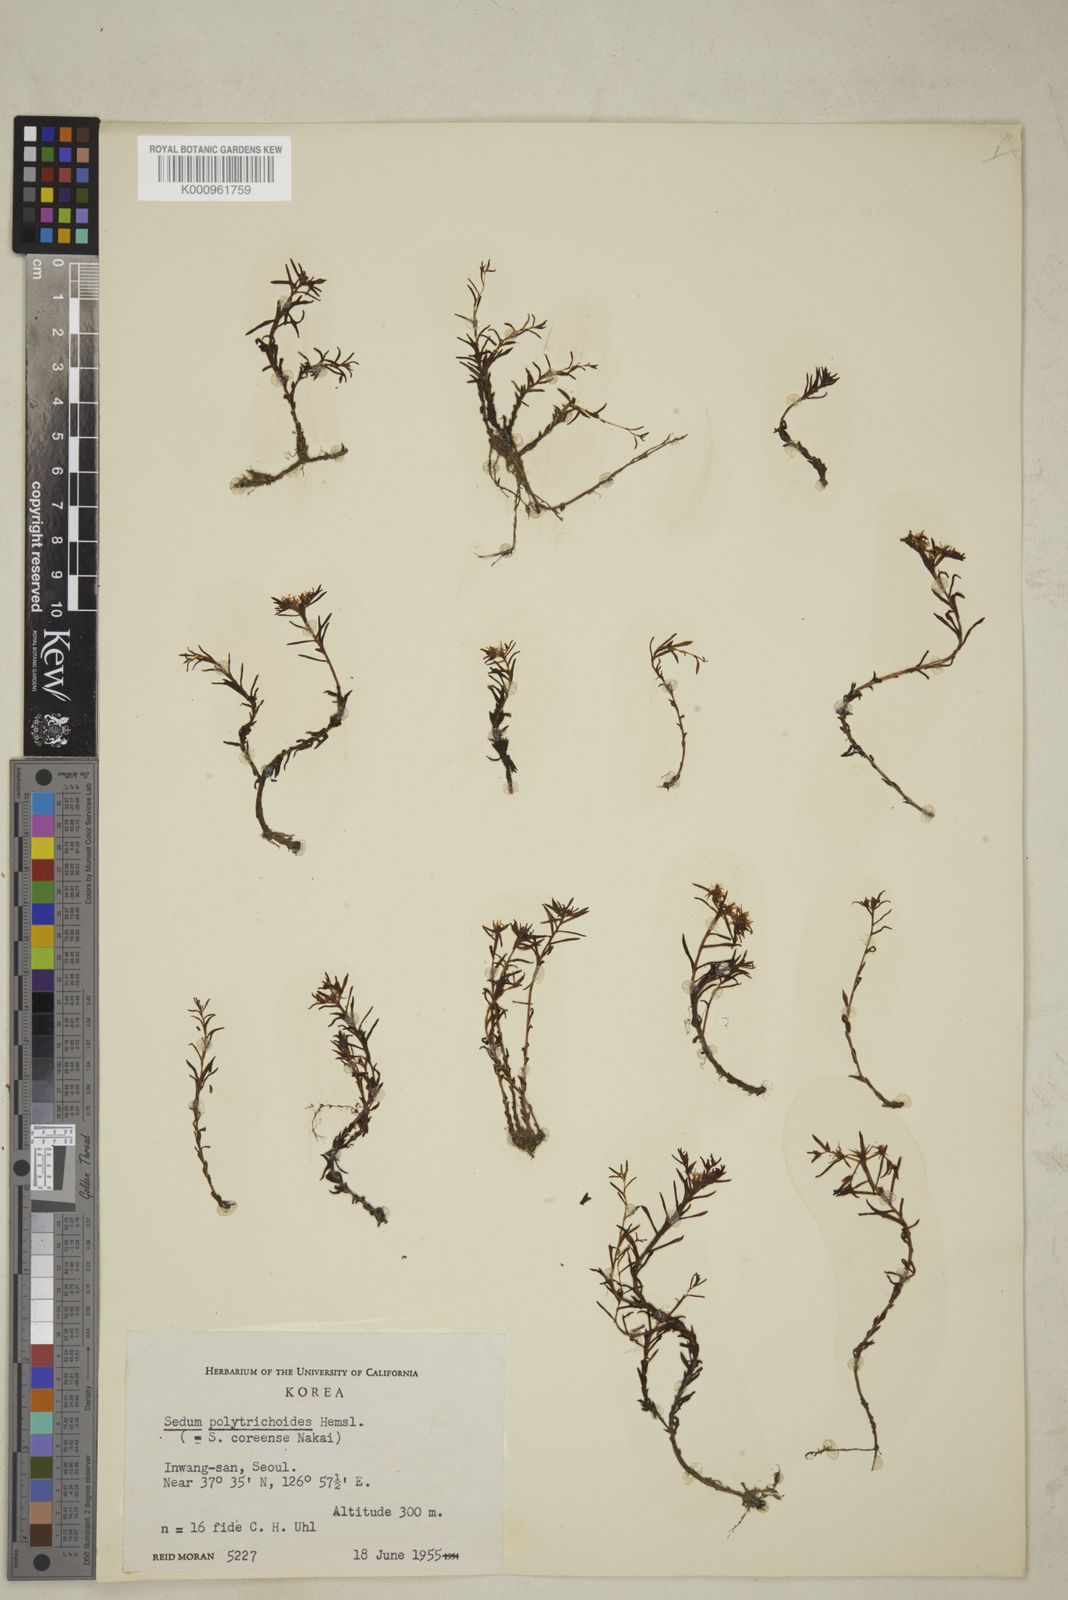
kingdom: Plantae
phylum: Tracheophyta
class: Magnoliopsida
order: Saxifragales
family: Crassulaceae
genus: Sedum
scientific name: Sedum polytrichoides
